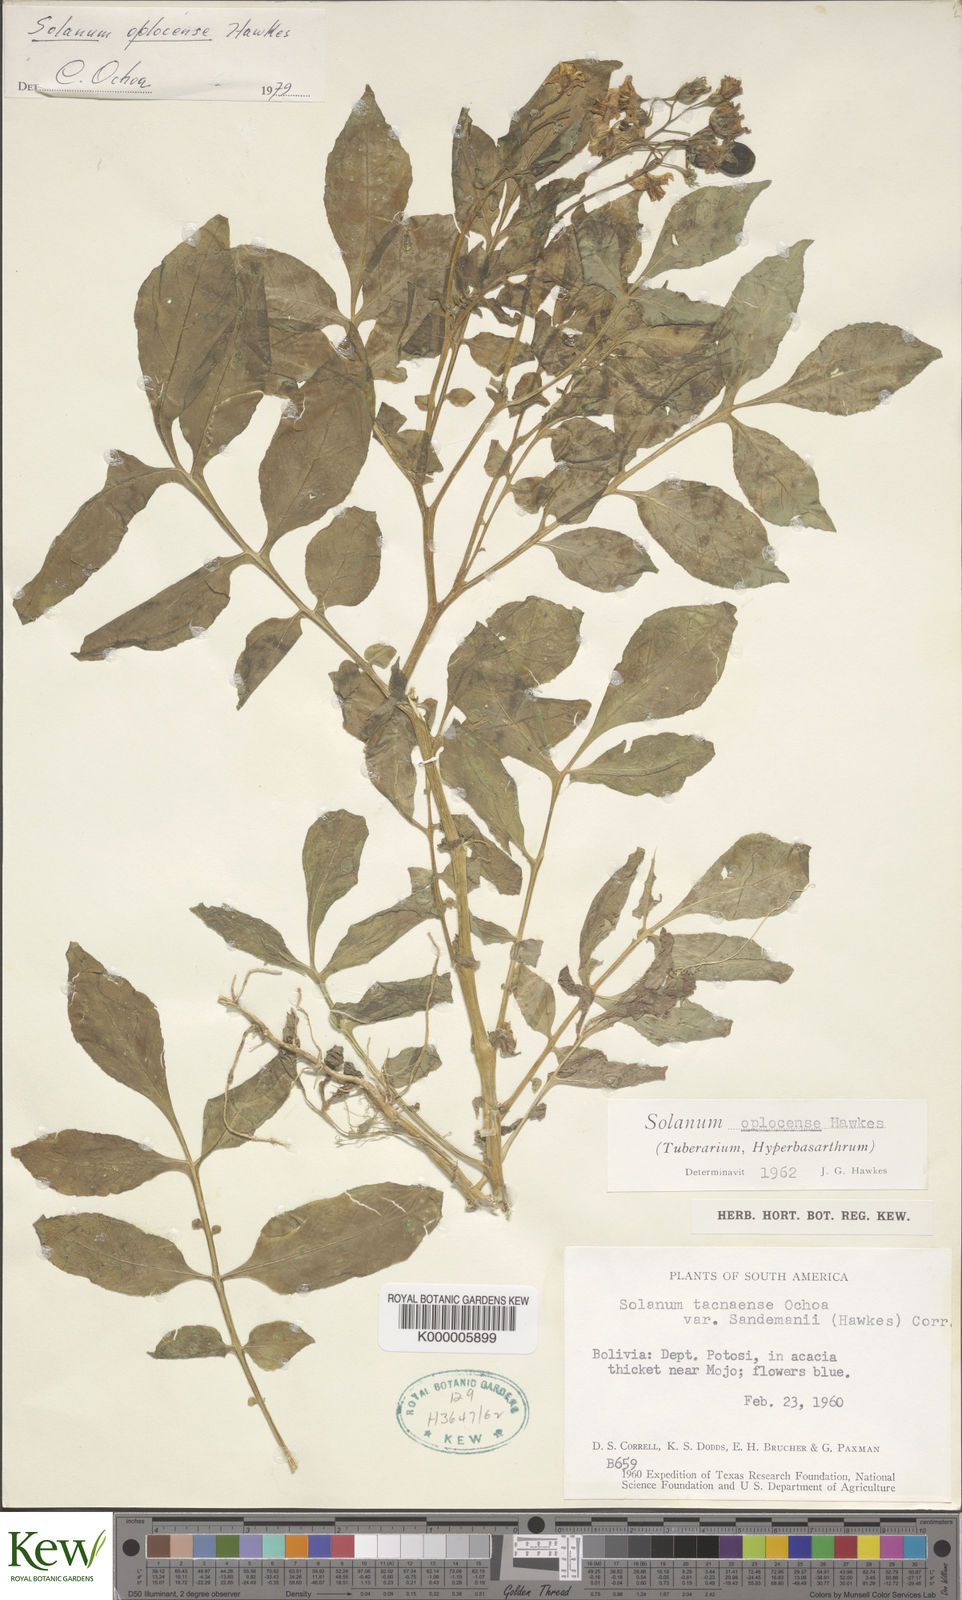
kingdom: Plantae
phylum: Tracheophyta
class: Magnoliopsida
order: Solanales
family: Solanaceae
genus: Solanum
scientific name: Solanum brevicaule
